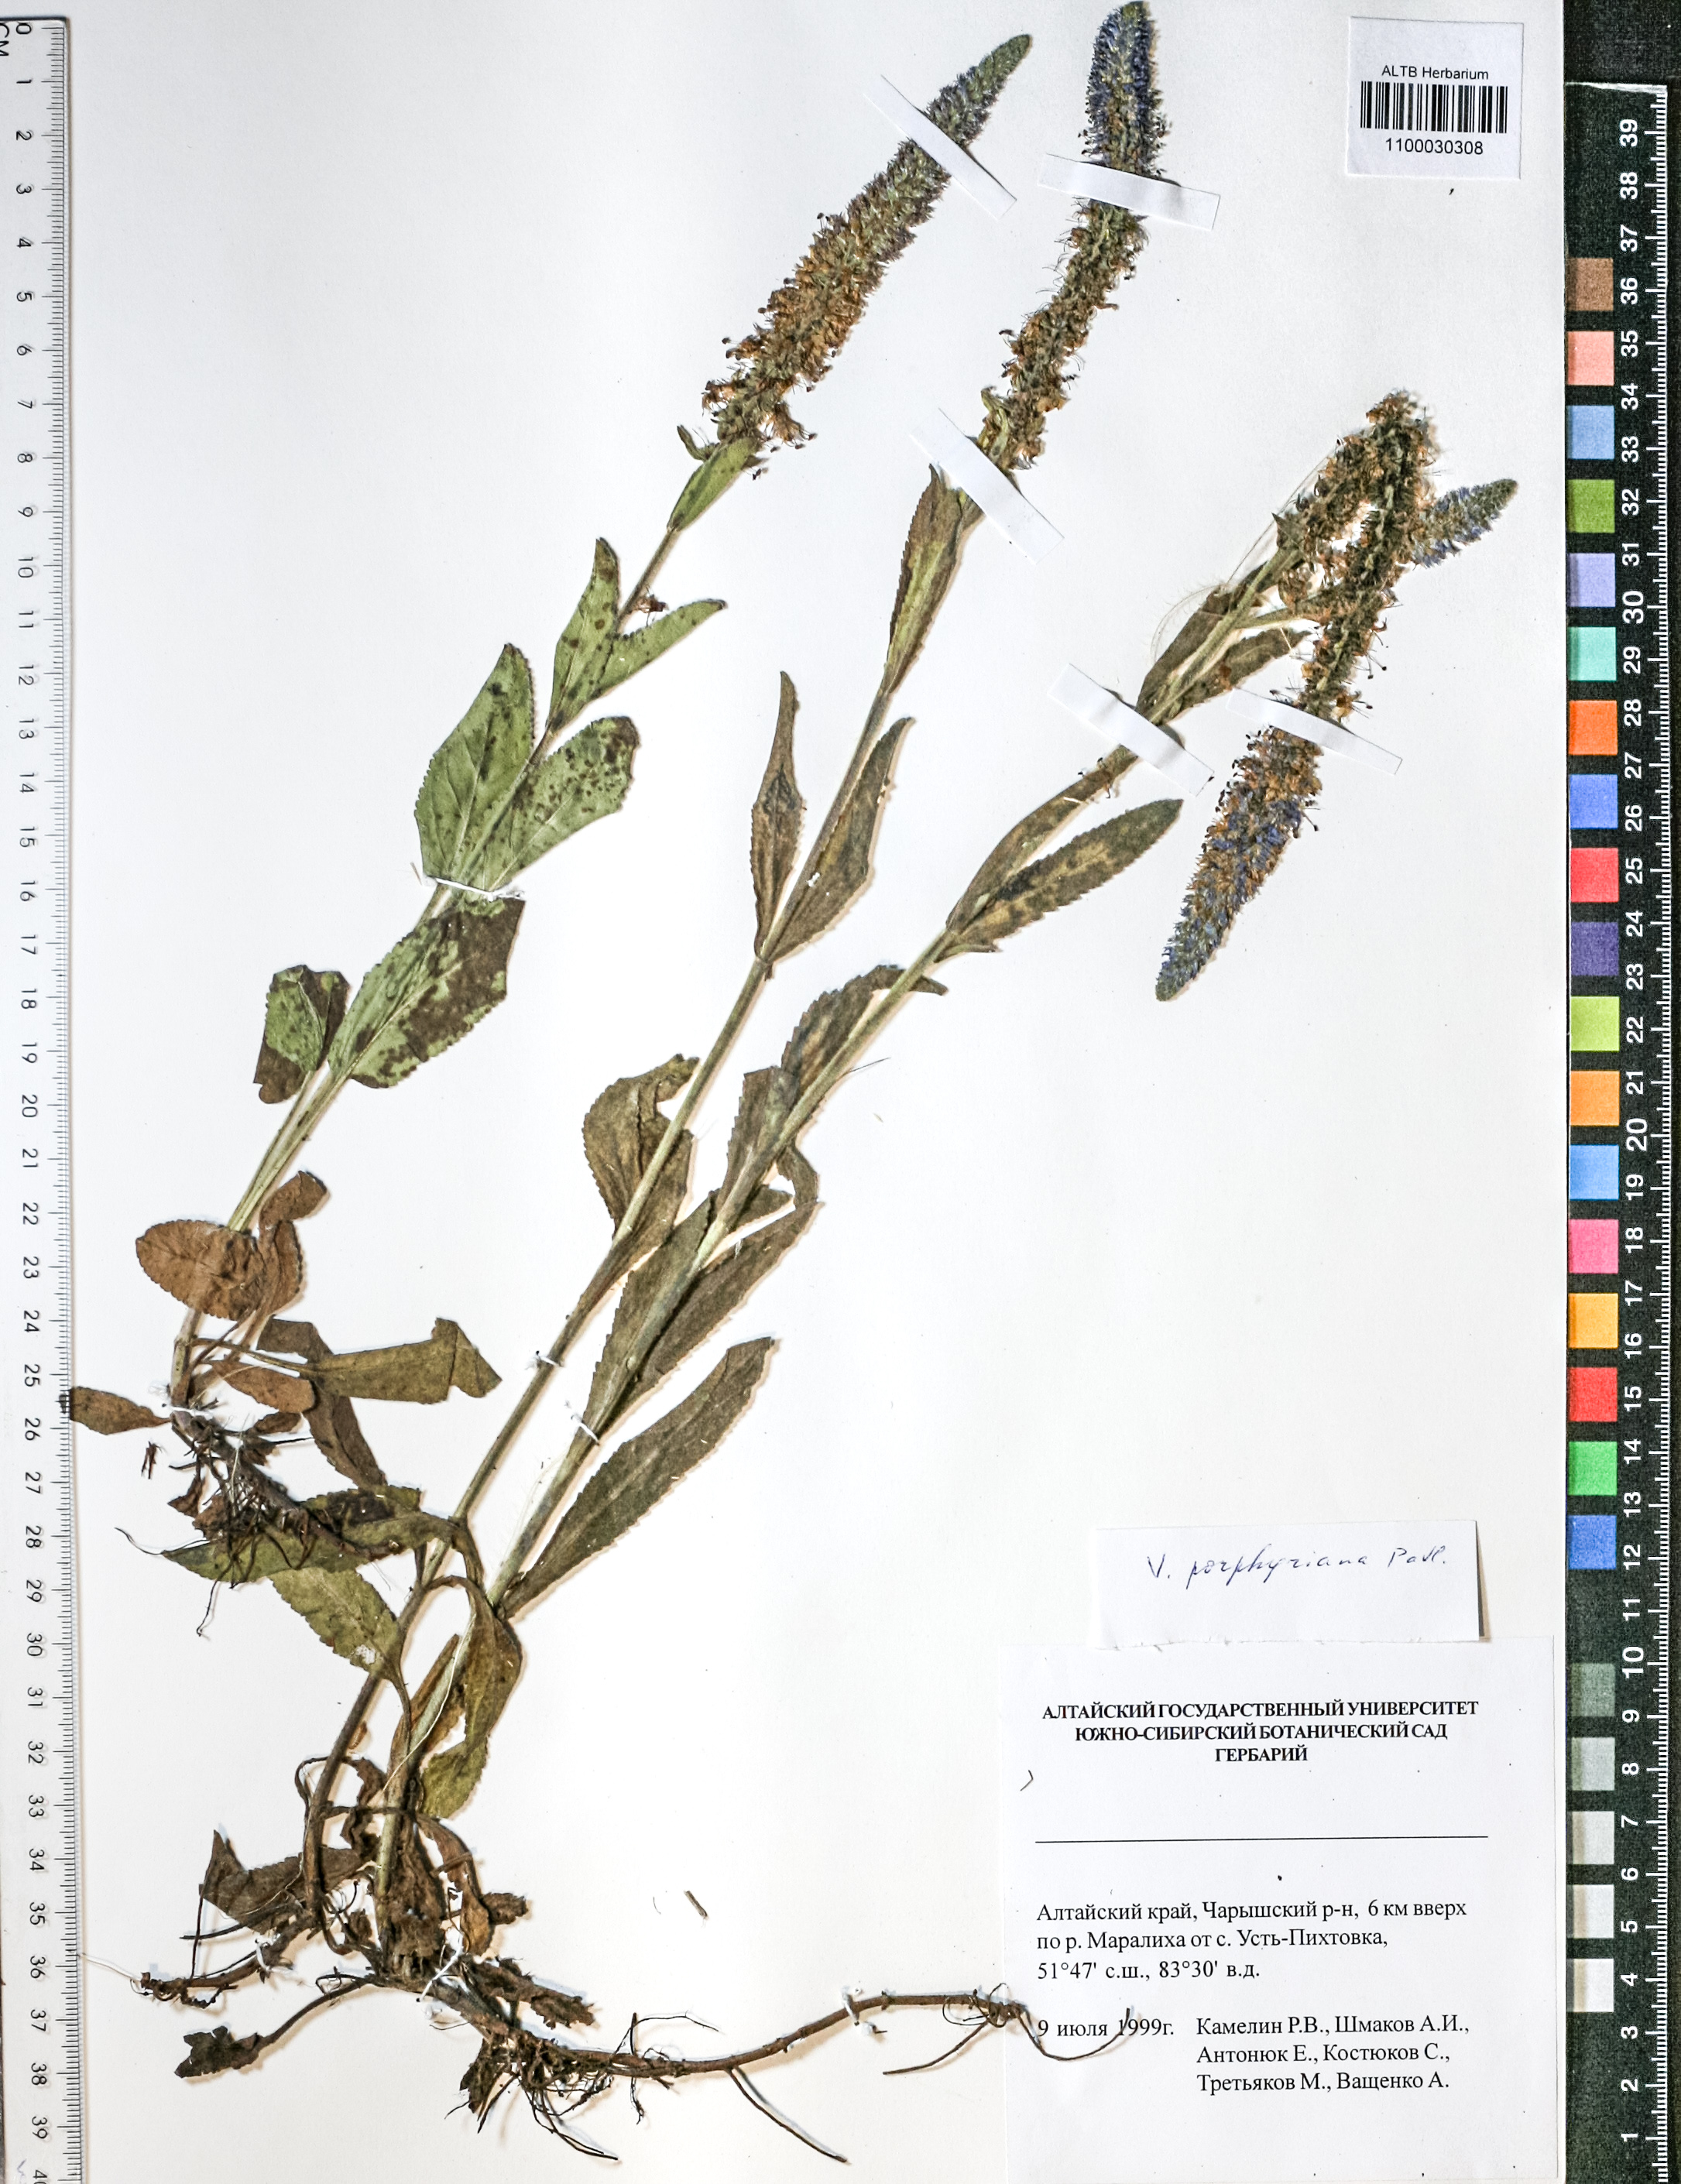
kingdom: Plantae
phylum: Tracheophyta
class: Magnoliopsida
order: Lamiales
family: Plantaginaceae
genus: Veronica
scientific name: Veronica porphyriana
